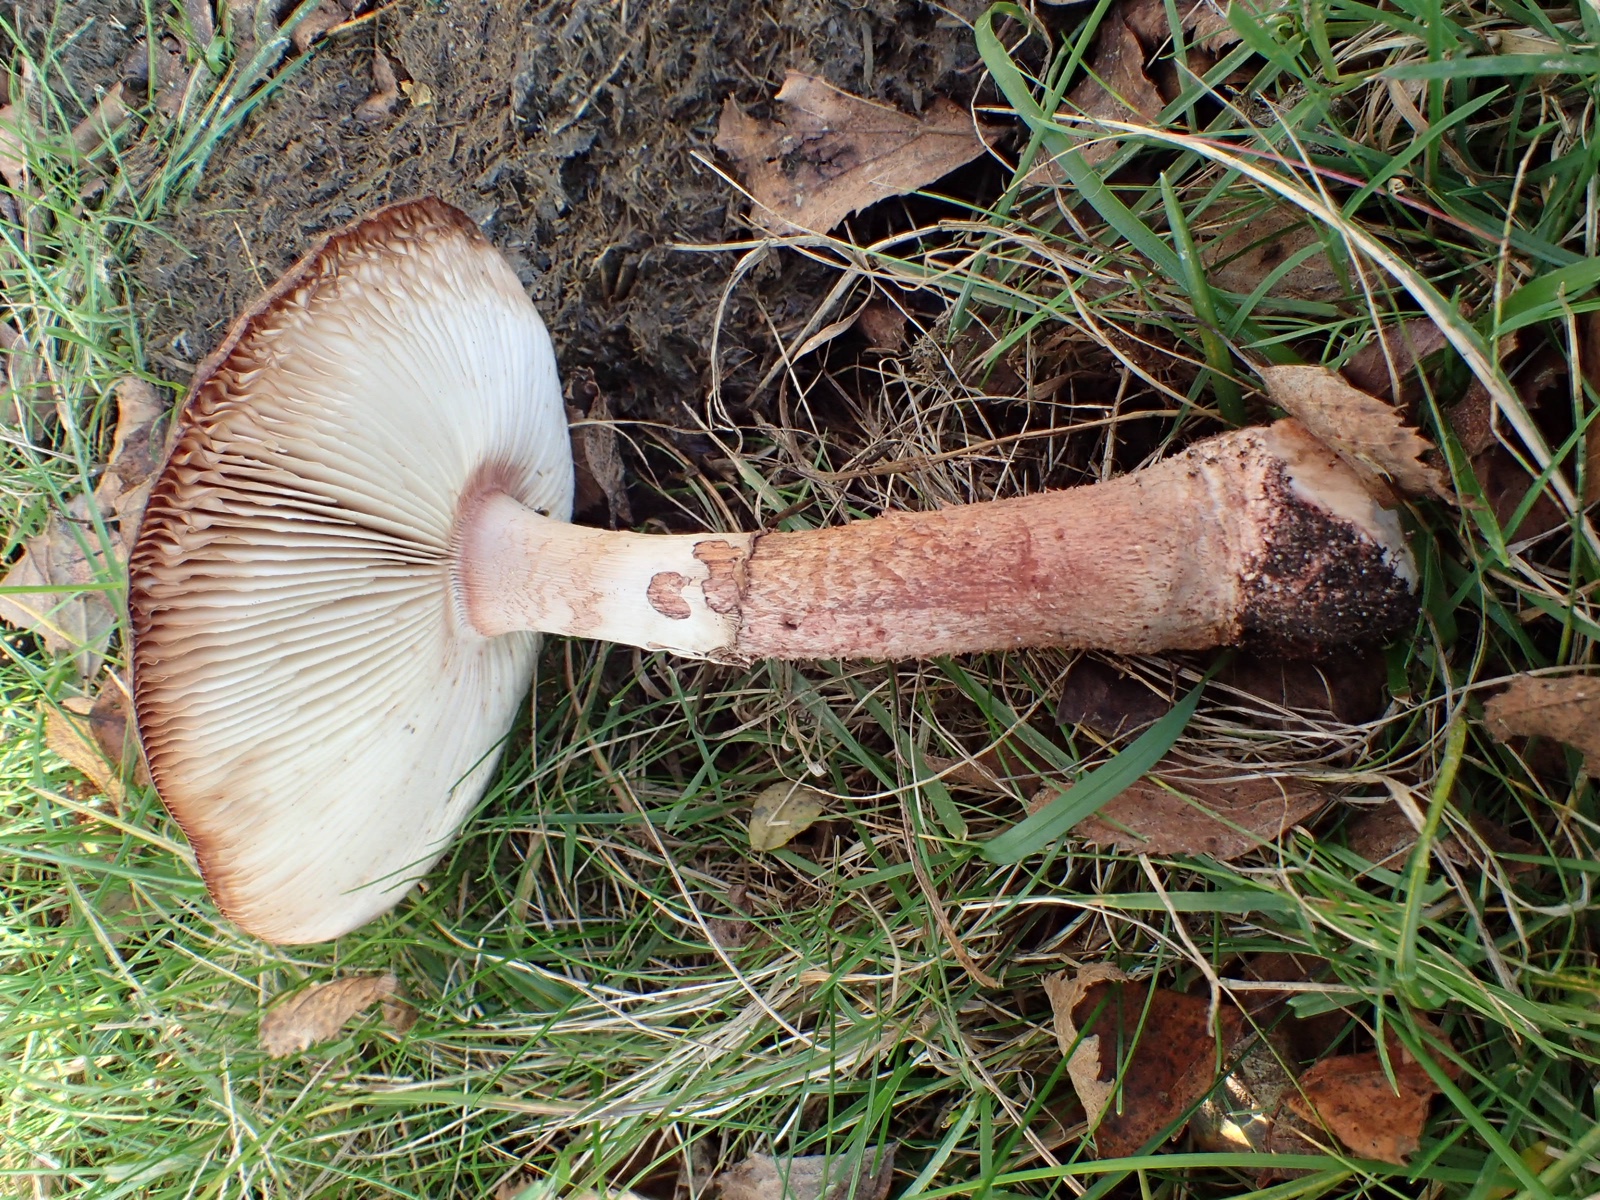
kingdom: Fungi
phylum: Basidiomycota
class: Agaricomycetes
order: Agaricales
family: Amanitaceae
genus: Amanita
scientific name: Amanita rubescens
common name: rødmende fluesvamp
